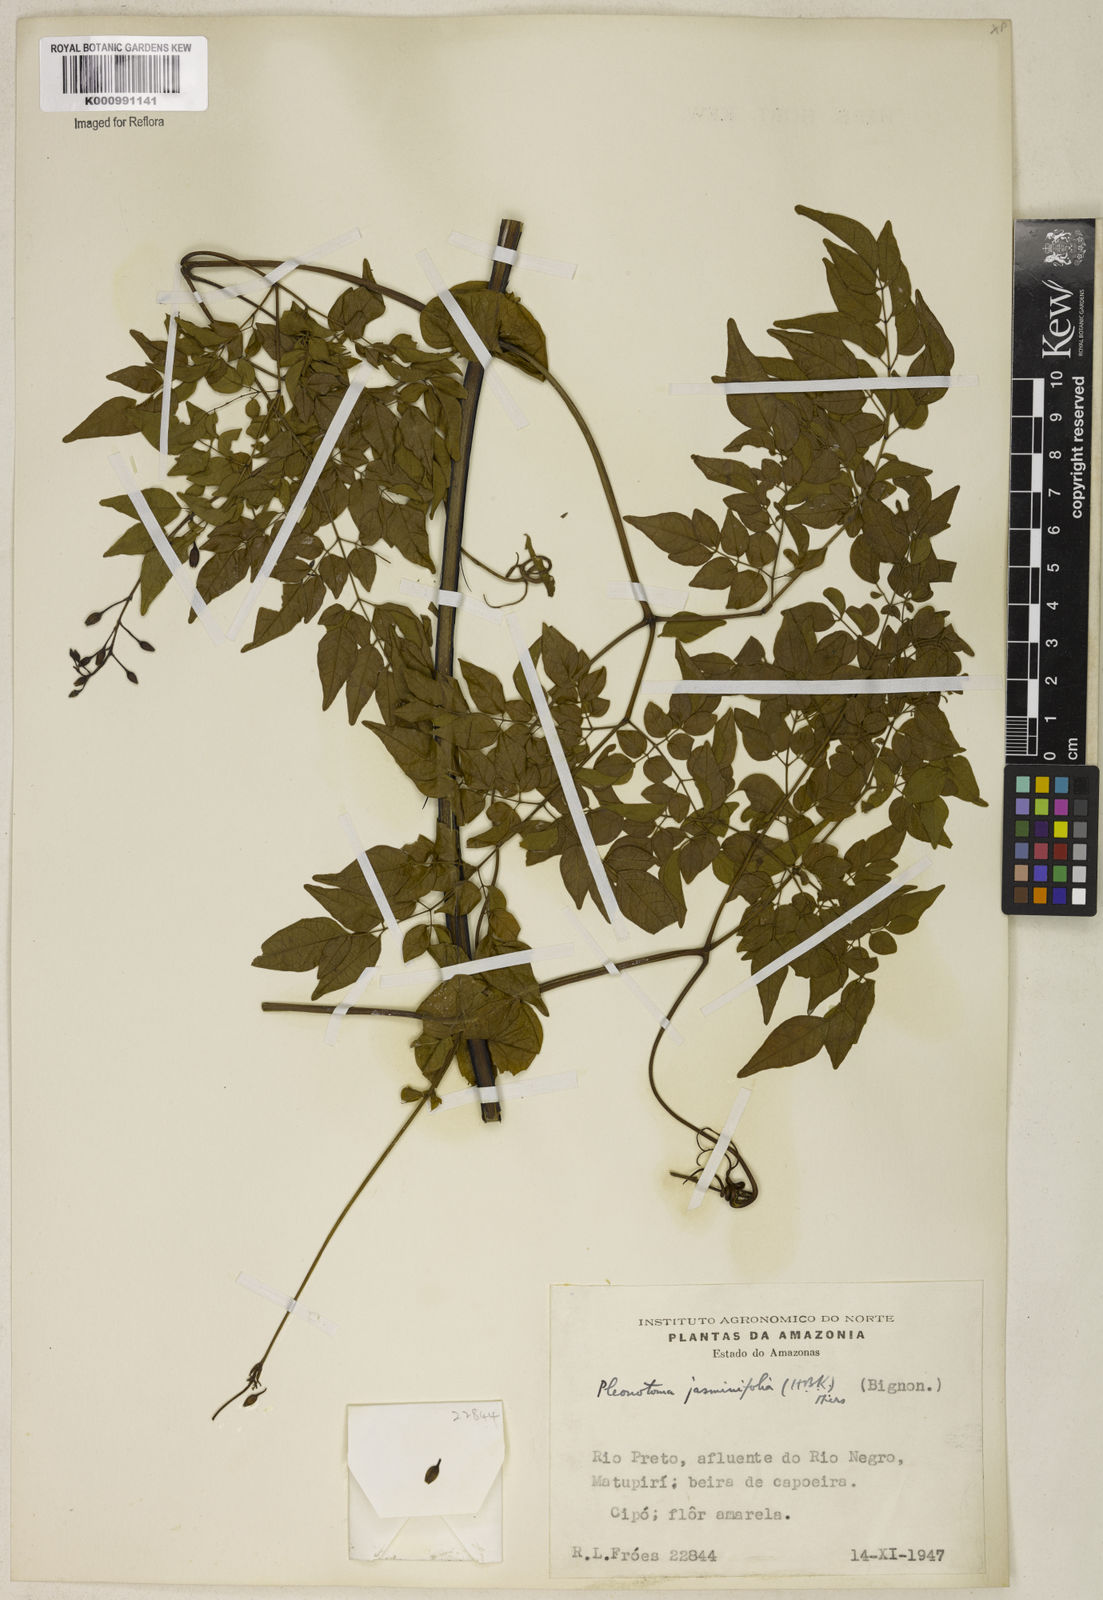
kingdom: Plantae
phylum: Tracheophyta
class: Magnoliopsida
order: Lamiales
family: Bignoniaceae
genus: Pleonotoma
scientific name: Pleonotoma jasminifolia
